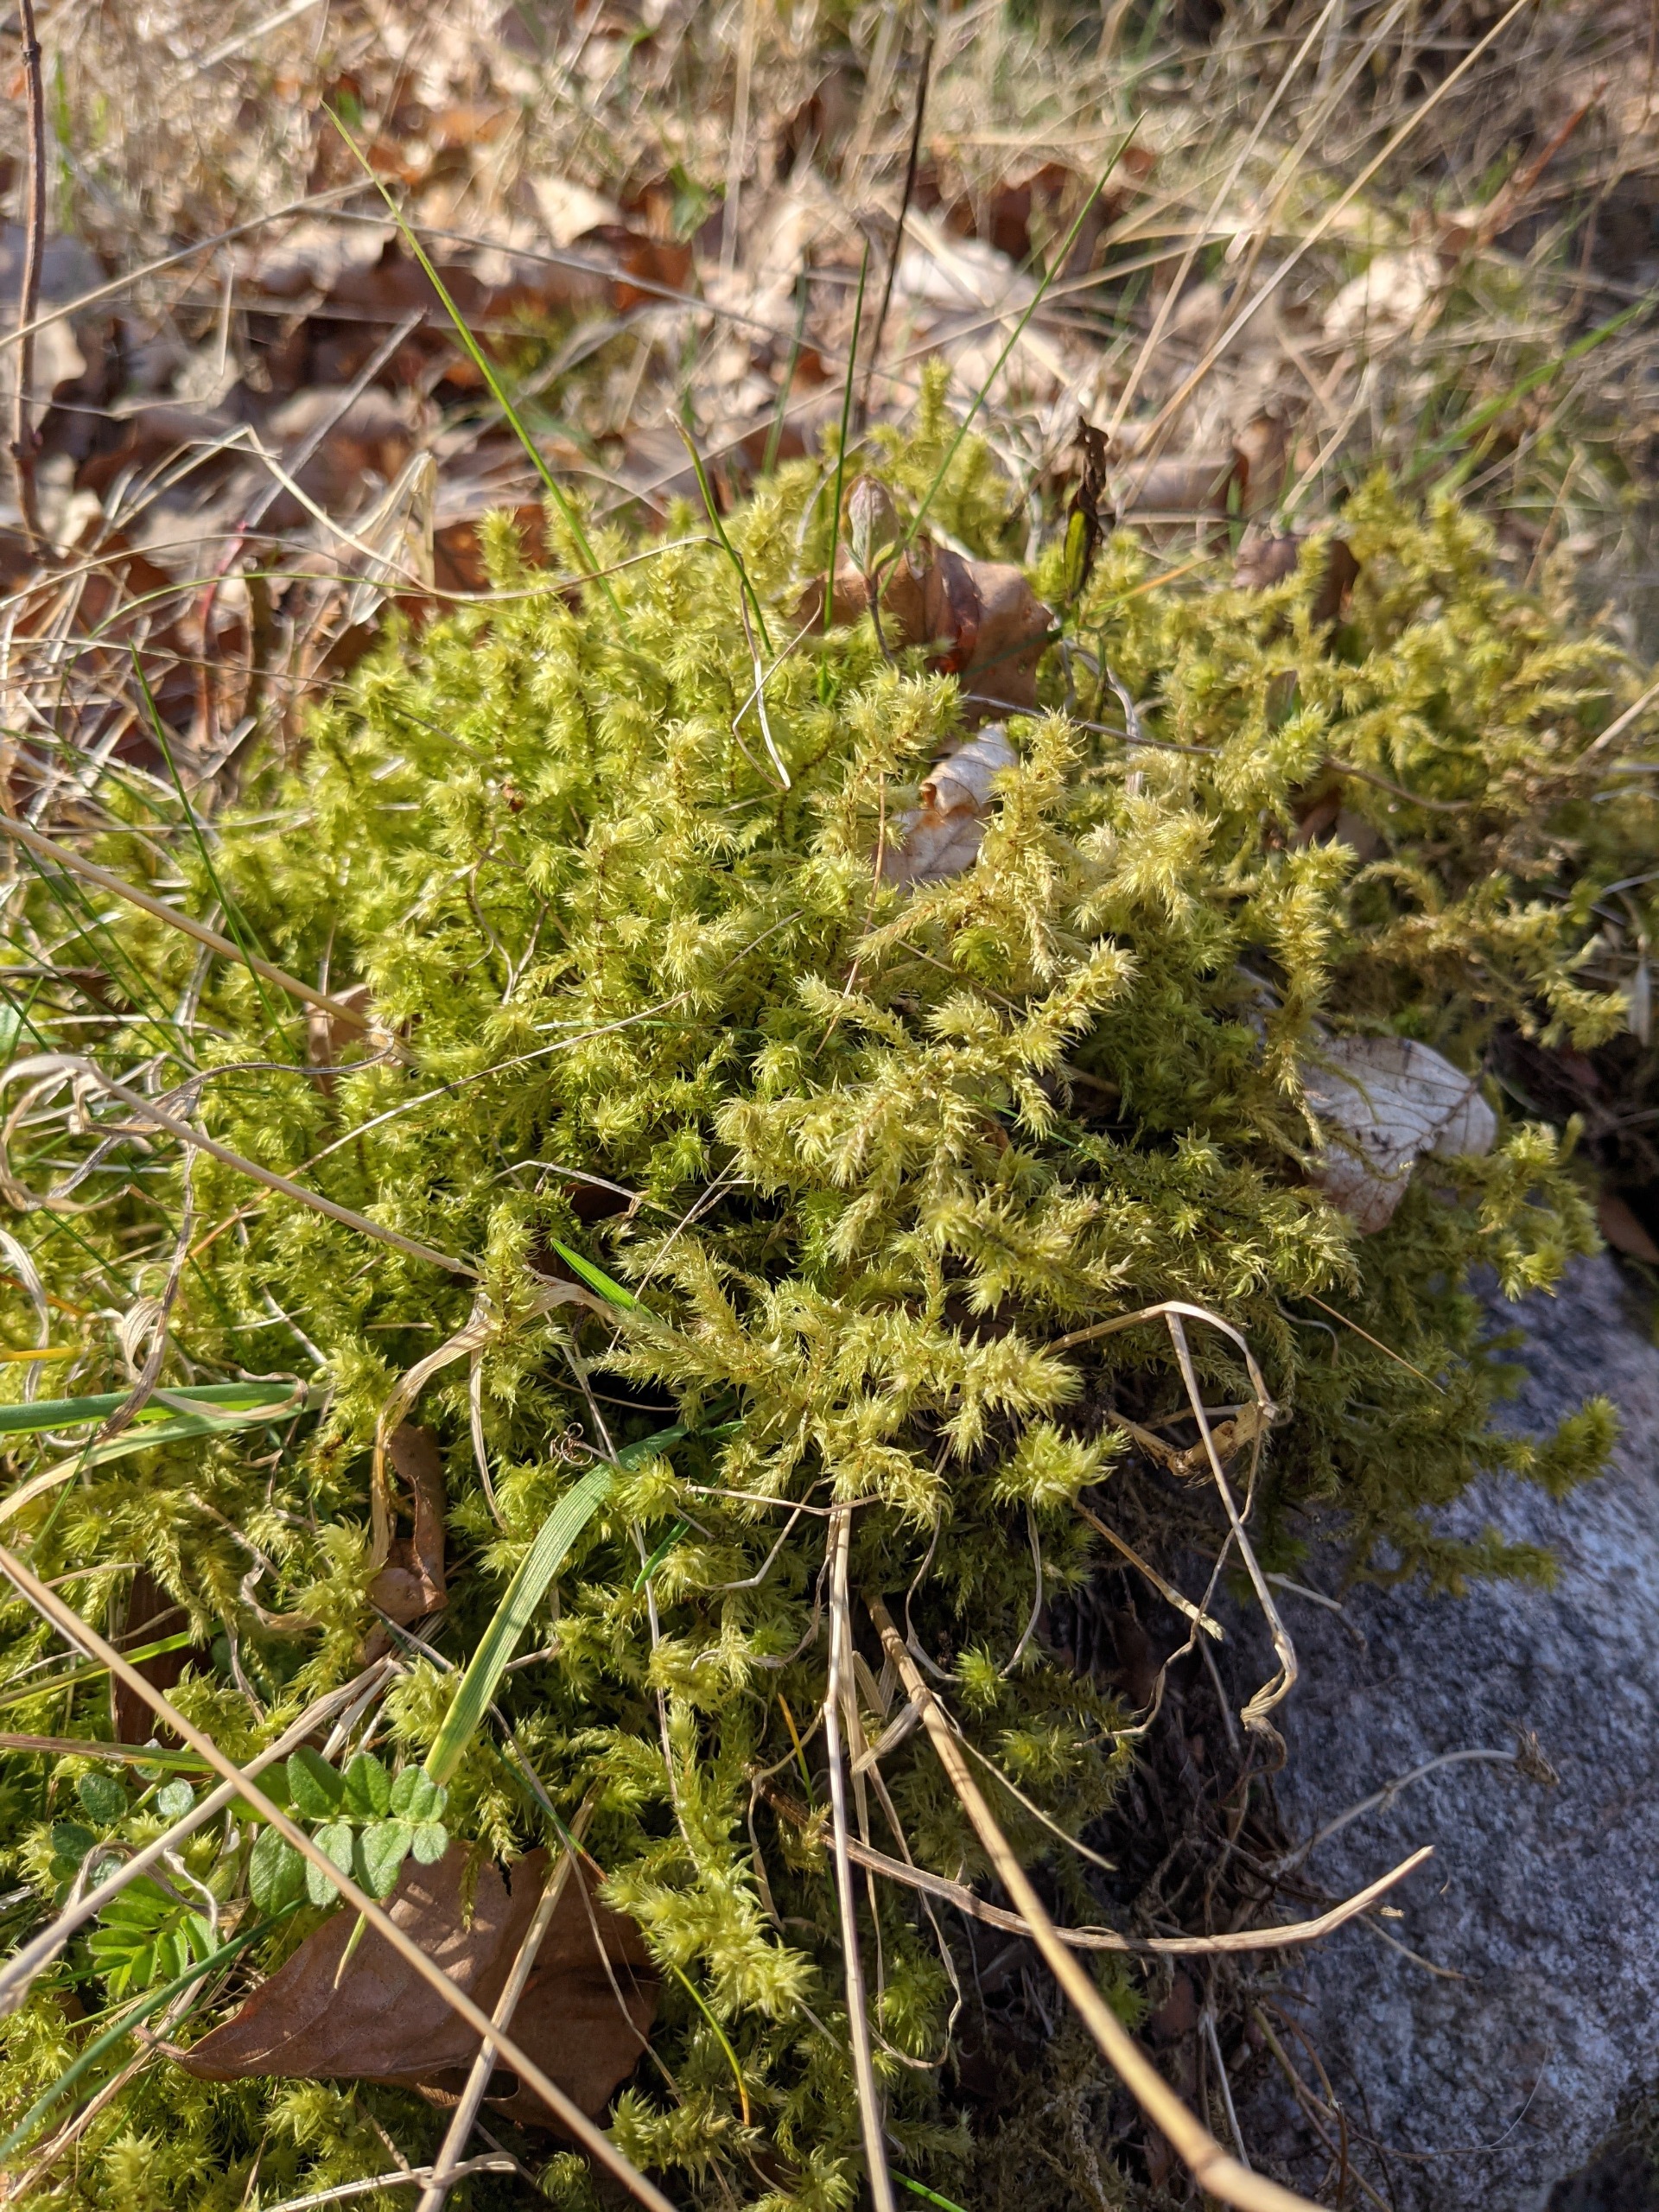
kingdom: Plantae
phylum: Bryophyta
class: Bryopsida
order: Hypnales
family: Hylocomiaceae
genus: Hylocomiadelphus
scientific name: Hylocomiadelphus triquetrus
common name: Stor kransemos
